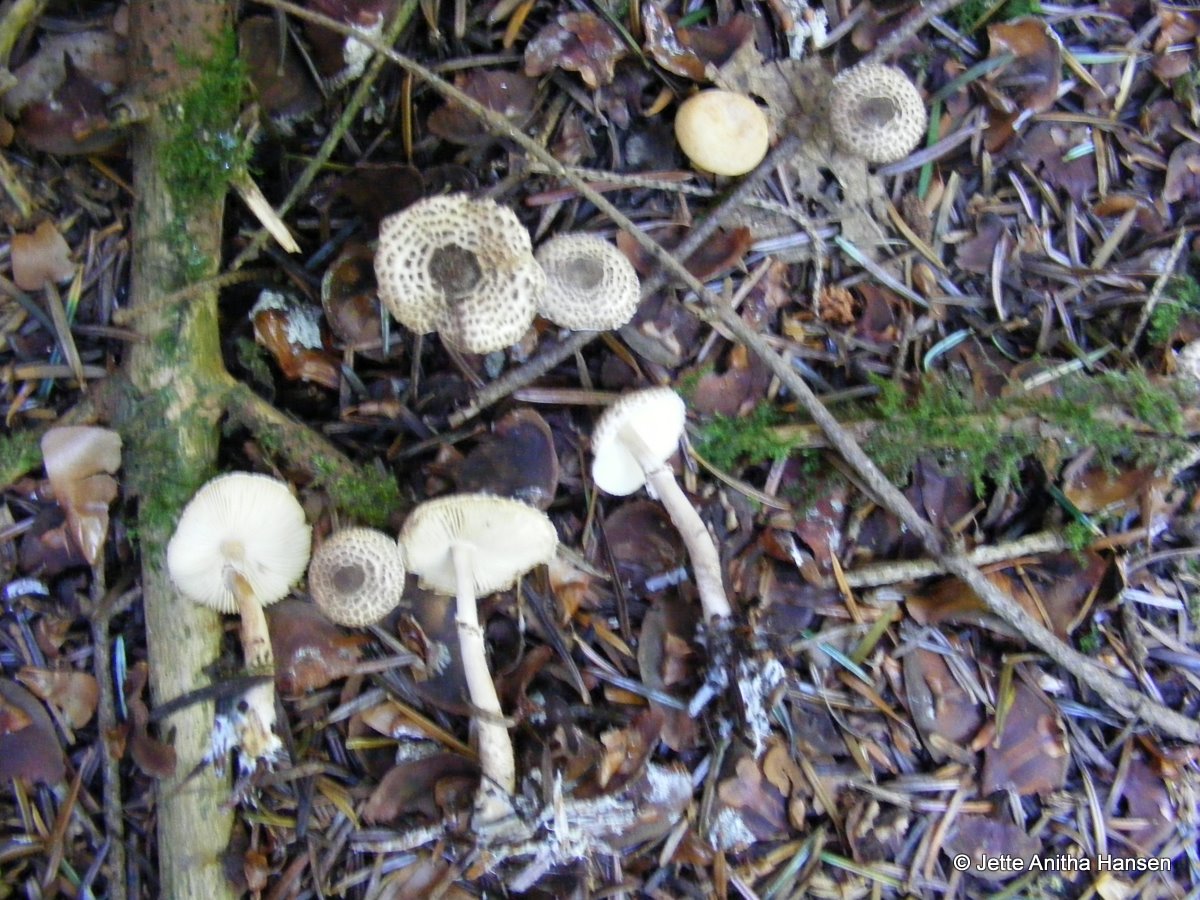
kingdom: Fungi
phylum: Basidiomycota
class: Agaricomycetes
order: Agaricales
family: Agaricaceae
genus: Lepiota
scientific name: Lepiota felina
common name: sortskællet parasolhat
